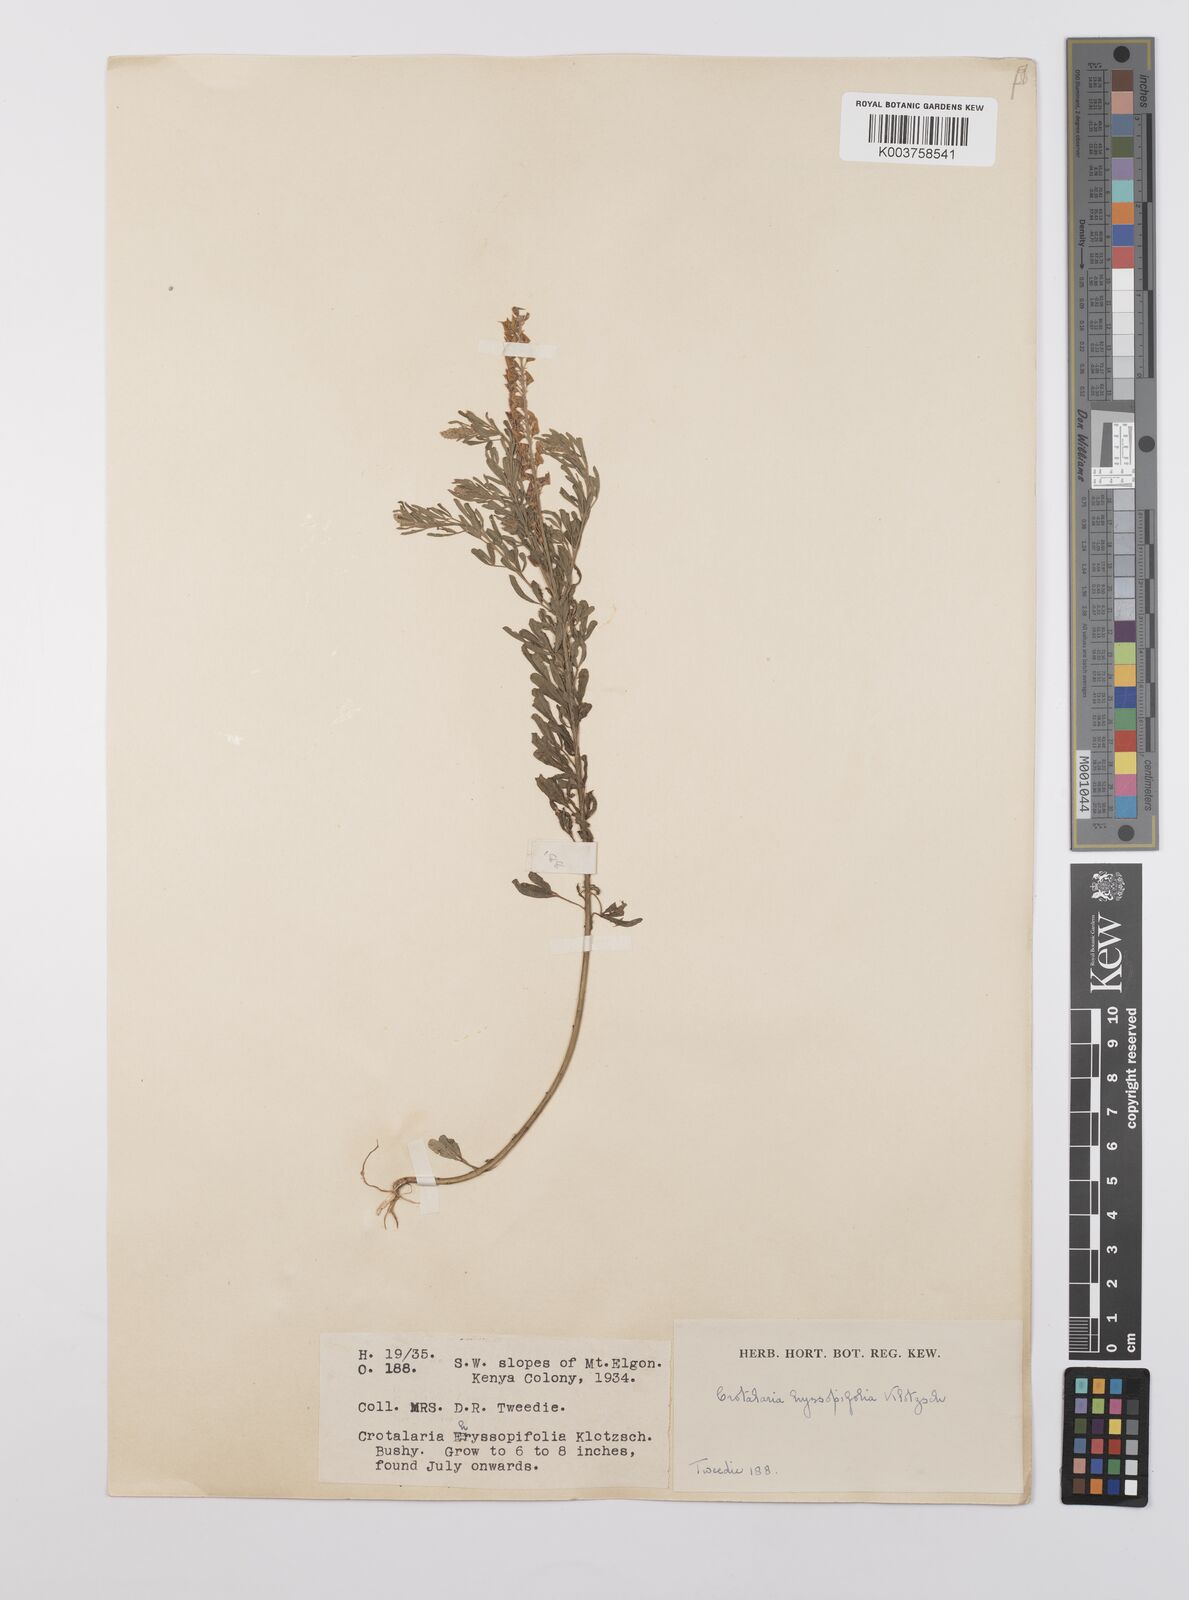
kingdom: Plantae
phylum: Tracheophyta
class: Magnoliopsida
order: Fabales
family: Fabaceae
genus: Crotalaria
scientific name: Crotalaria hyssopifolia
